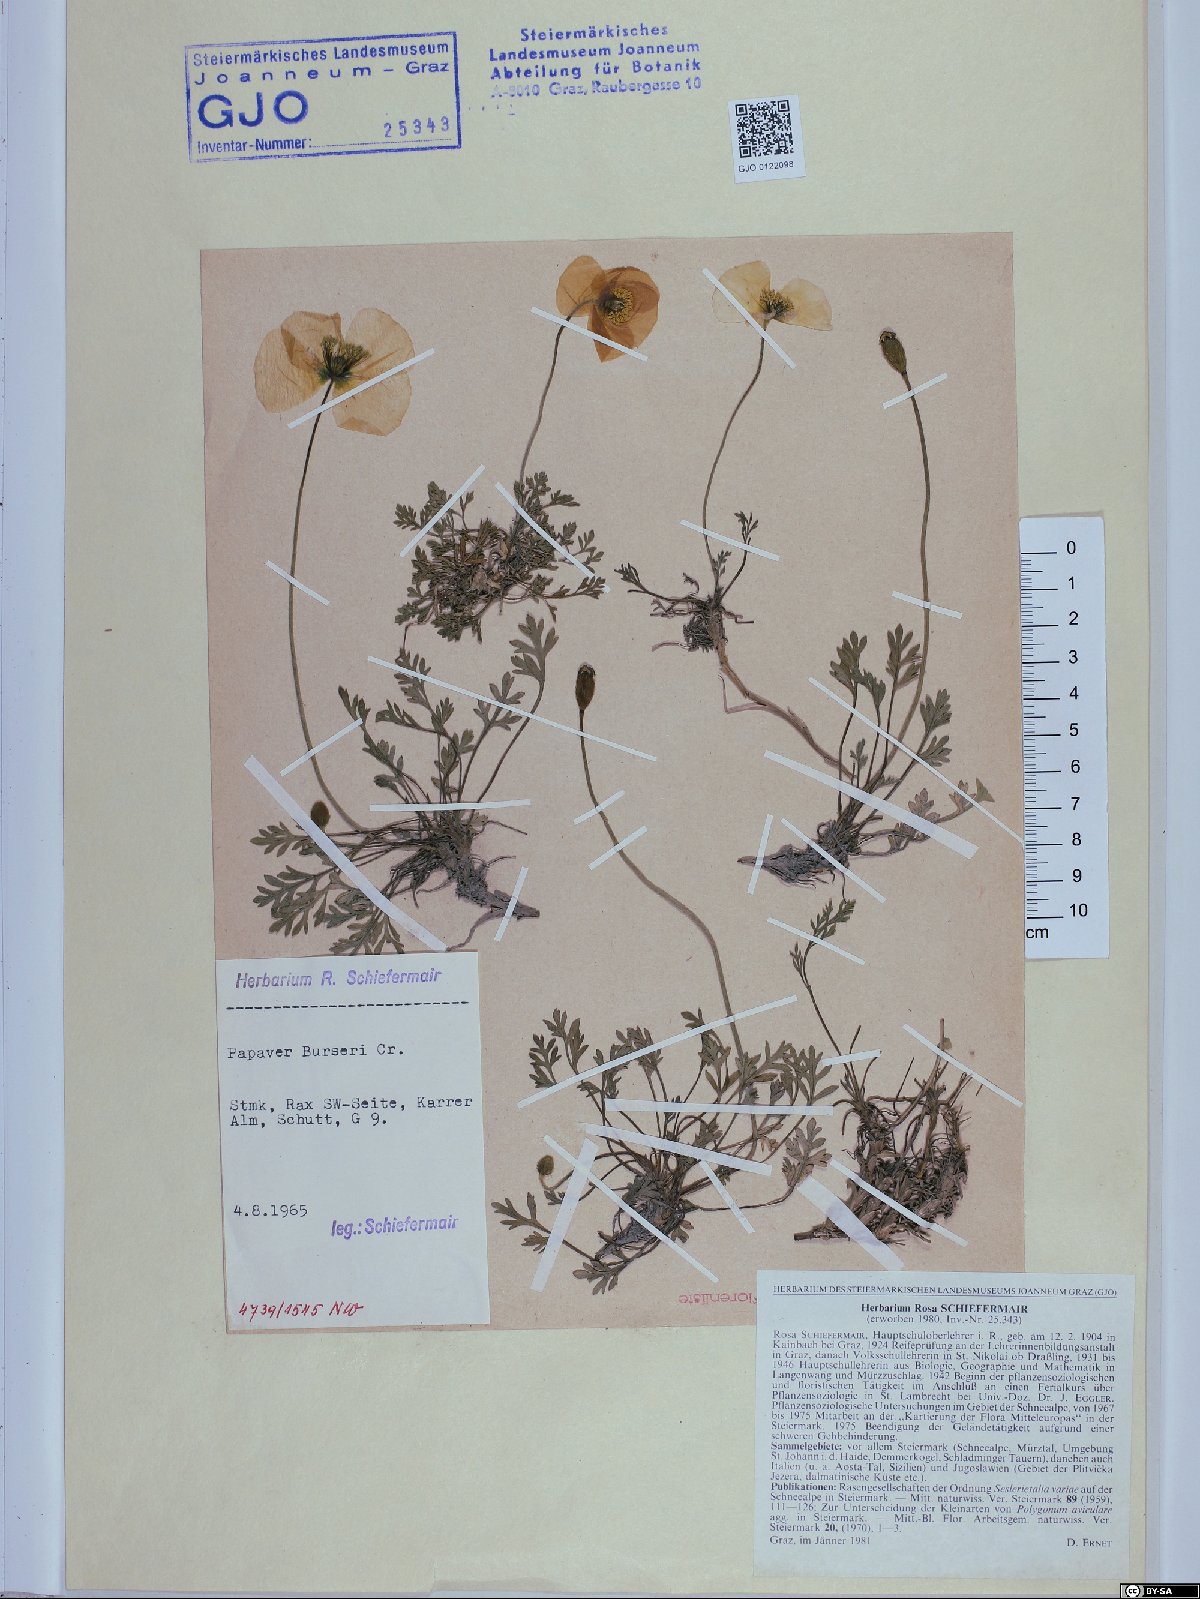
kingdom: Plantae
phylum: Tracheophyta
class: Magnoliopsida
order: Ranunculales
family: Papaveraceae
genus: Papaver
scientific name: Papaver alpinum
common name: Austrian poppy
